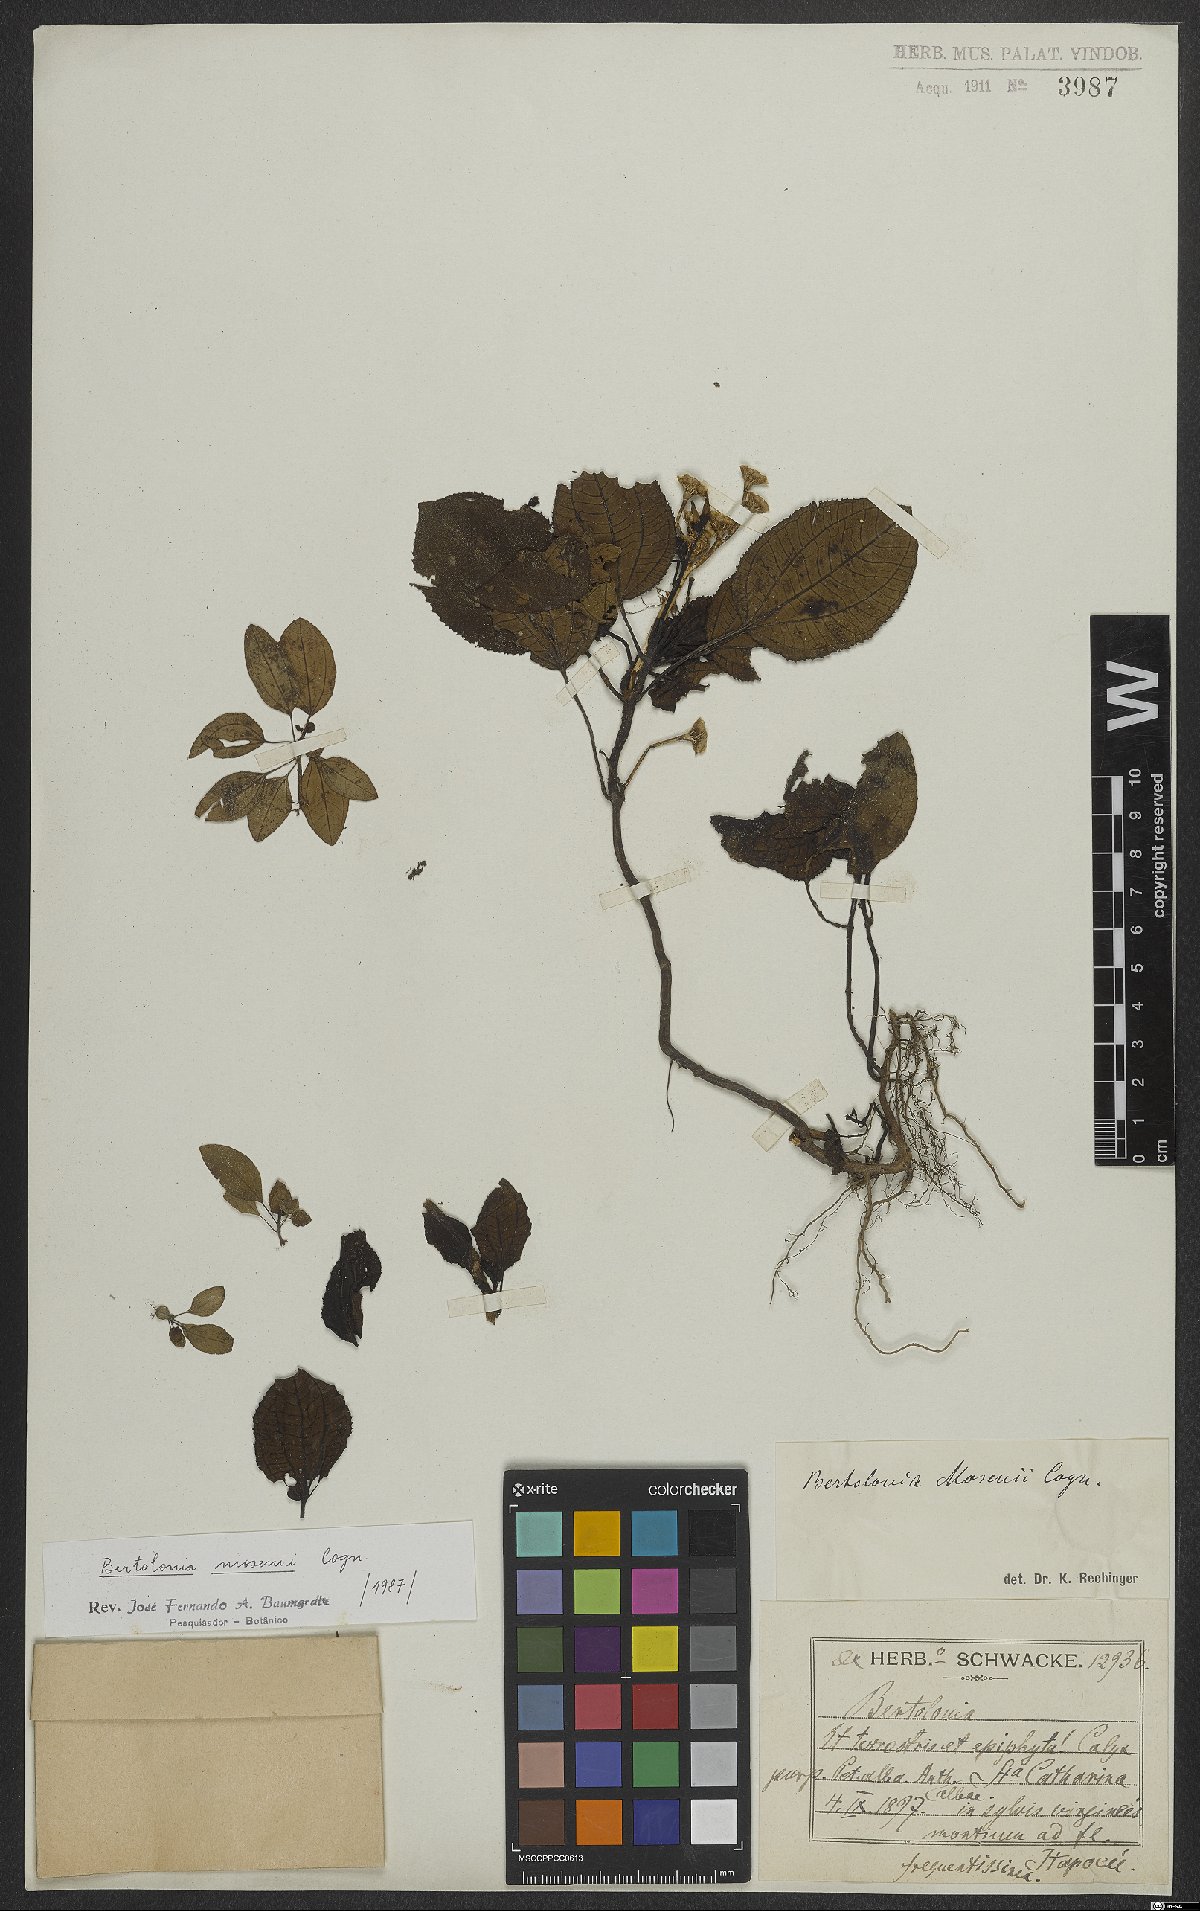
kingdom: Plantae
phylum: Tracheophyta
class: Magnoliopsida
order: Myrtales
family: Melastomataceae
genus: Bertolonia
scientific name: Bertolonia mosenii
